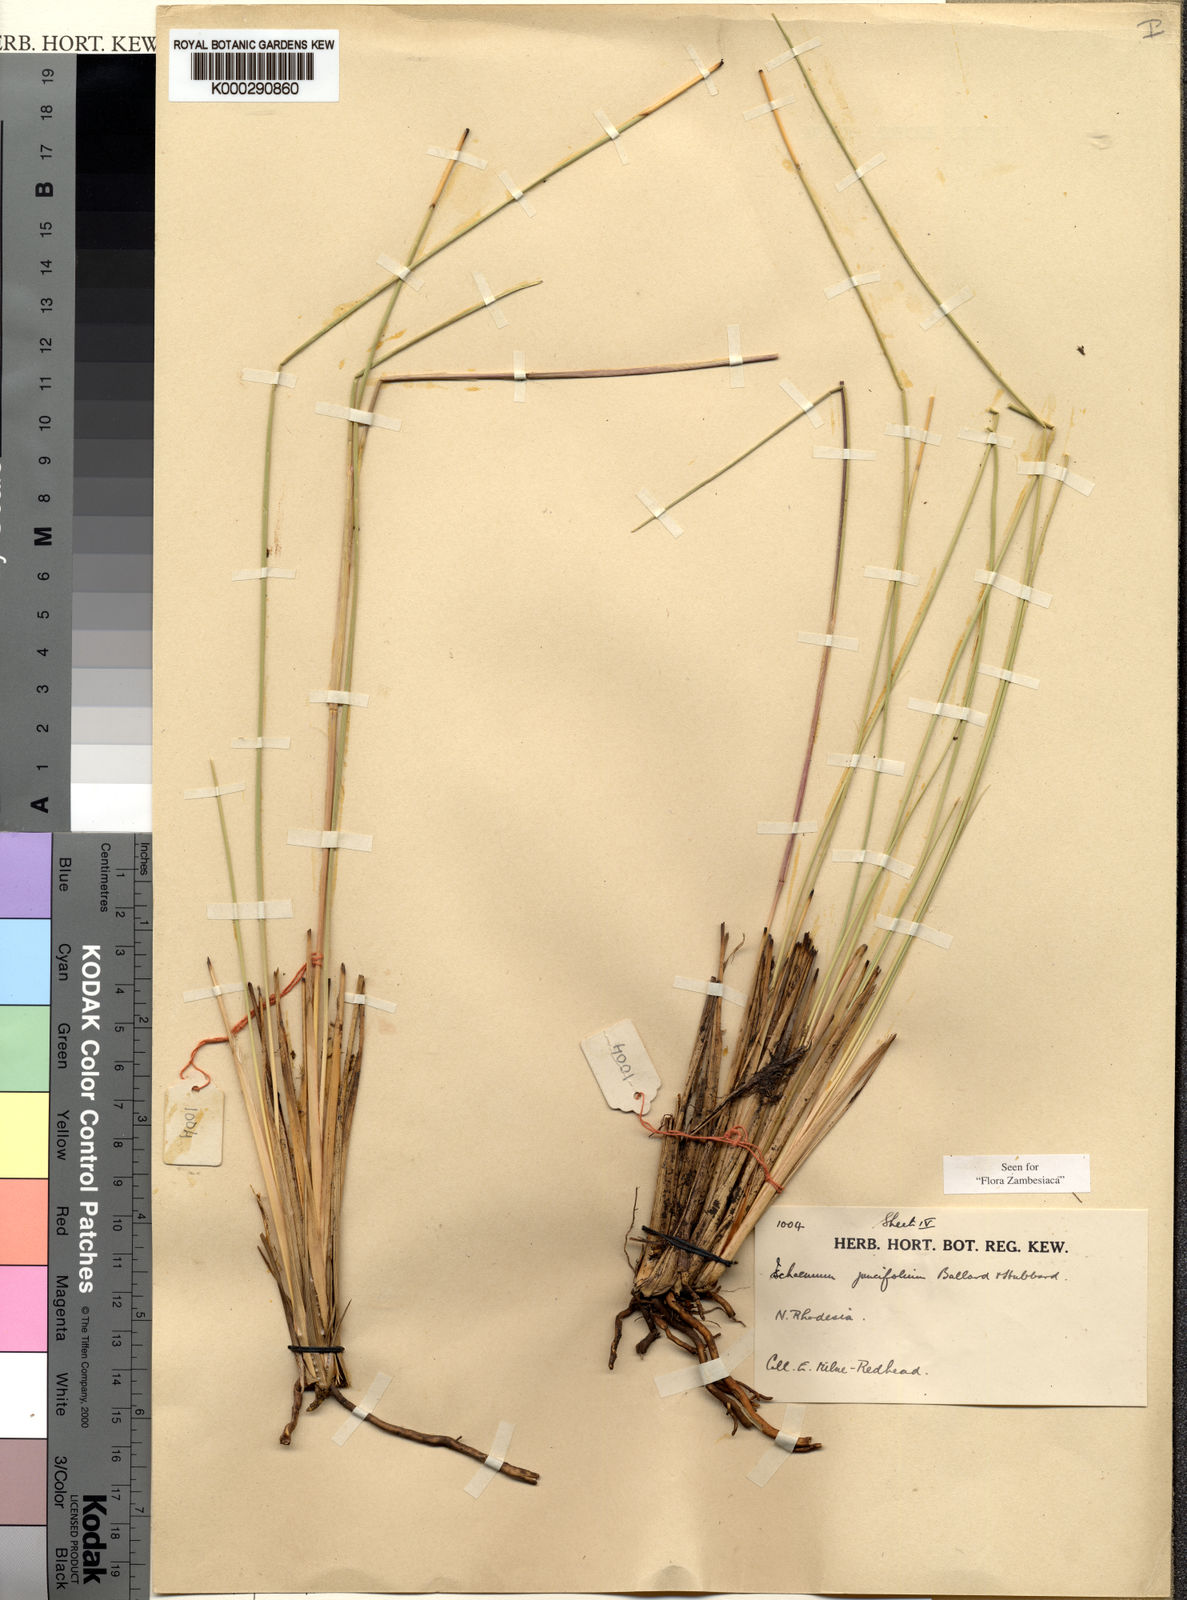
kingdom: Plantae
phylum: Tracheophyta
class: Liliopsida
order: Poales
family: Poaceae
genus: Phacelurus
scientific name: Phacelurus franksiae
